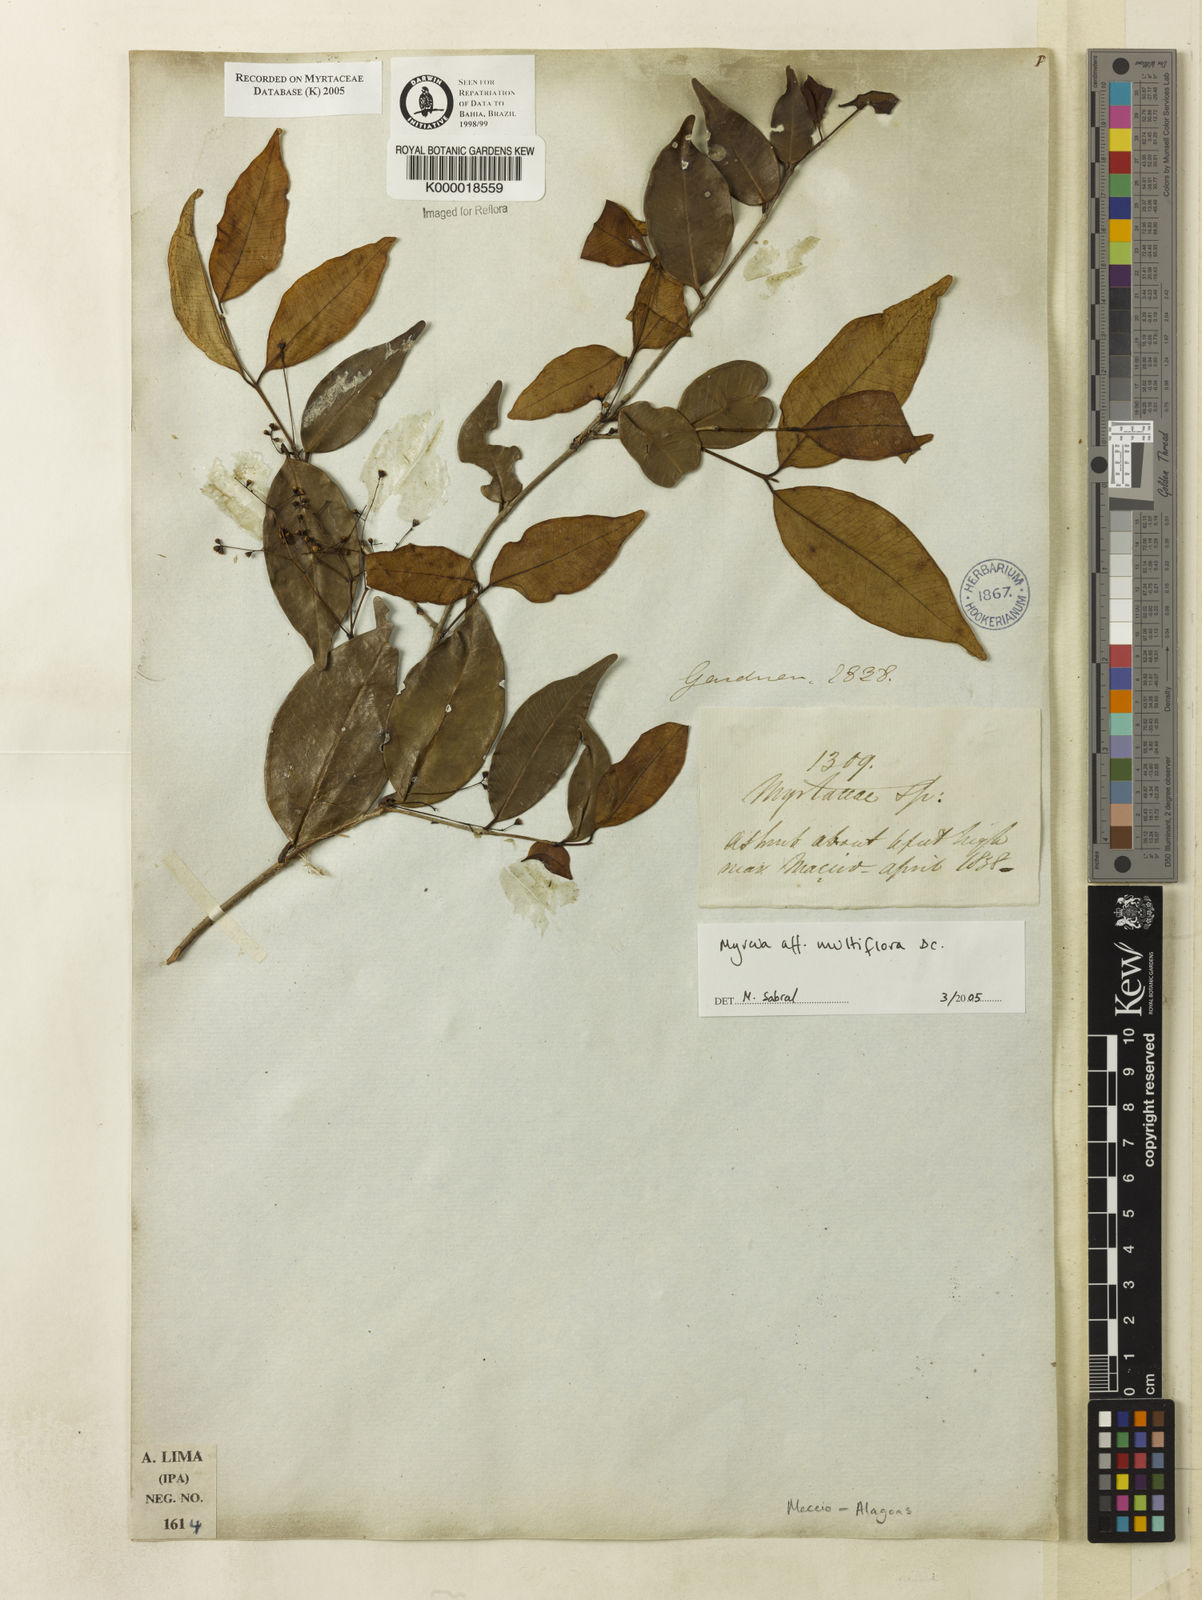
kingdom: Plantae
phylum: Tracheophyta
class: Magnoliopsida
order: Myrtales
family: Myrtaceae
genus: Myrcia
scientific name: Myrcia
